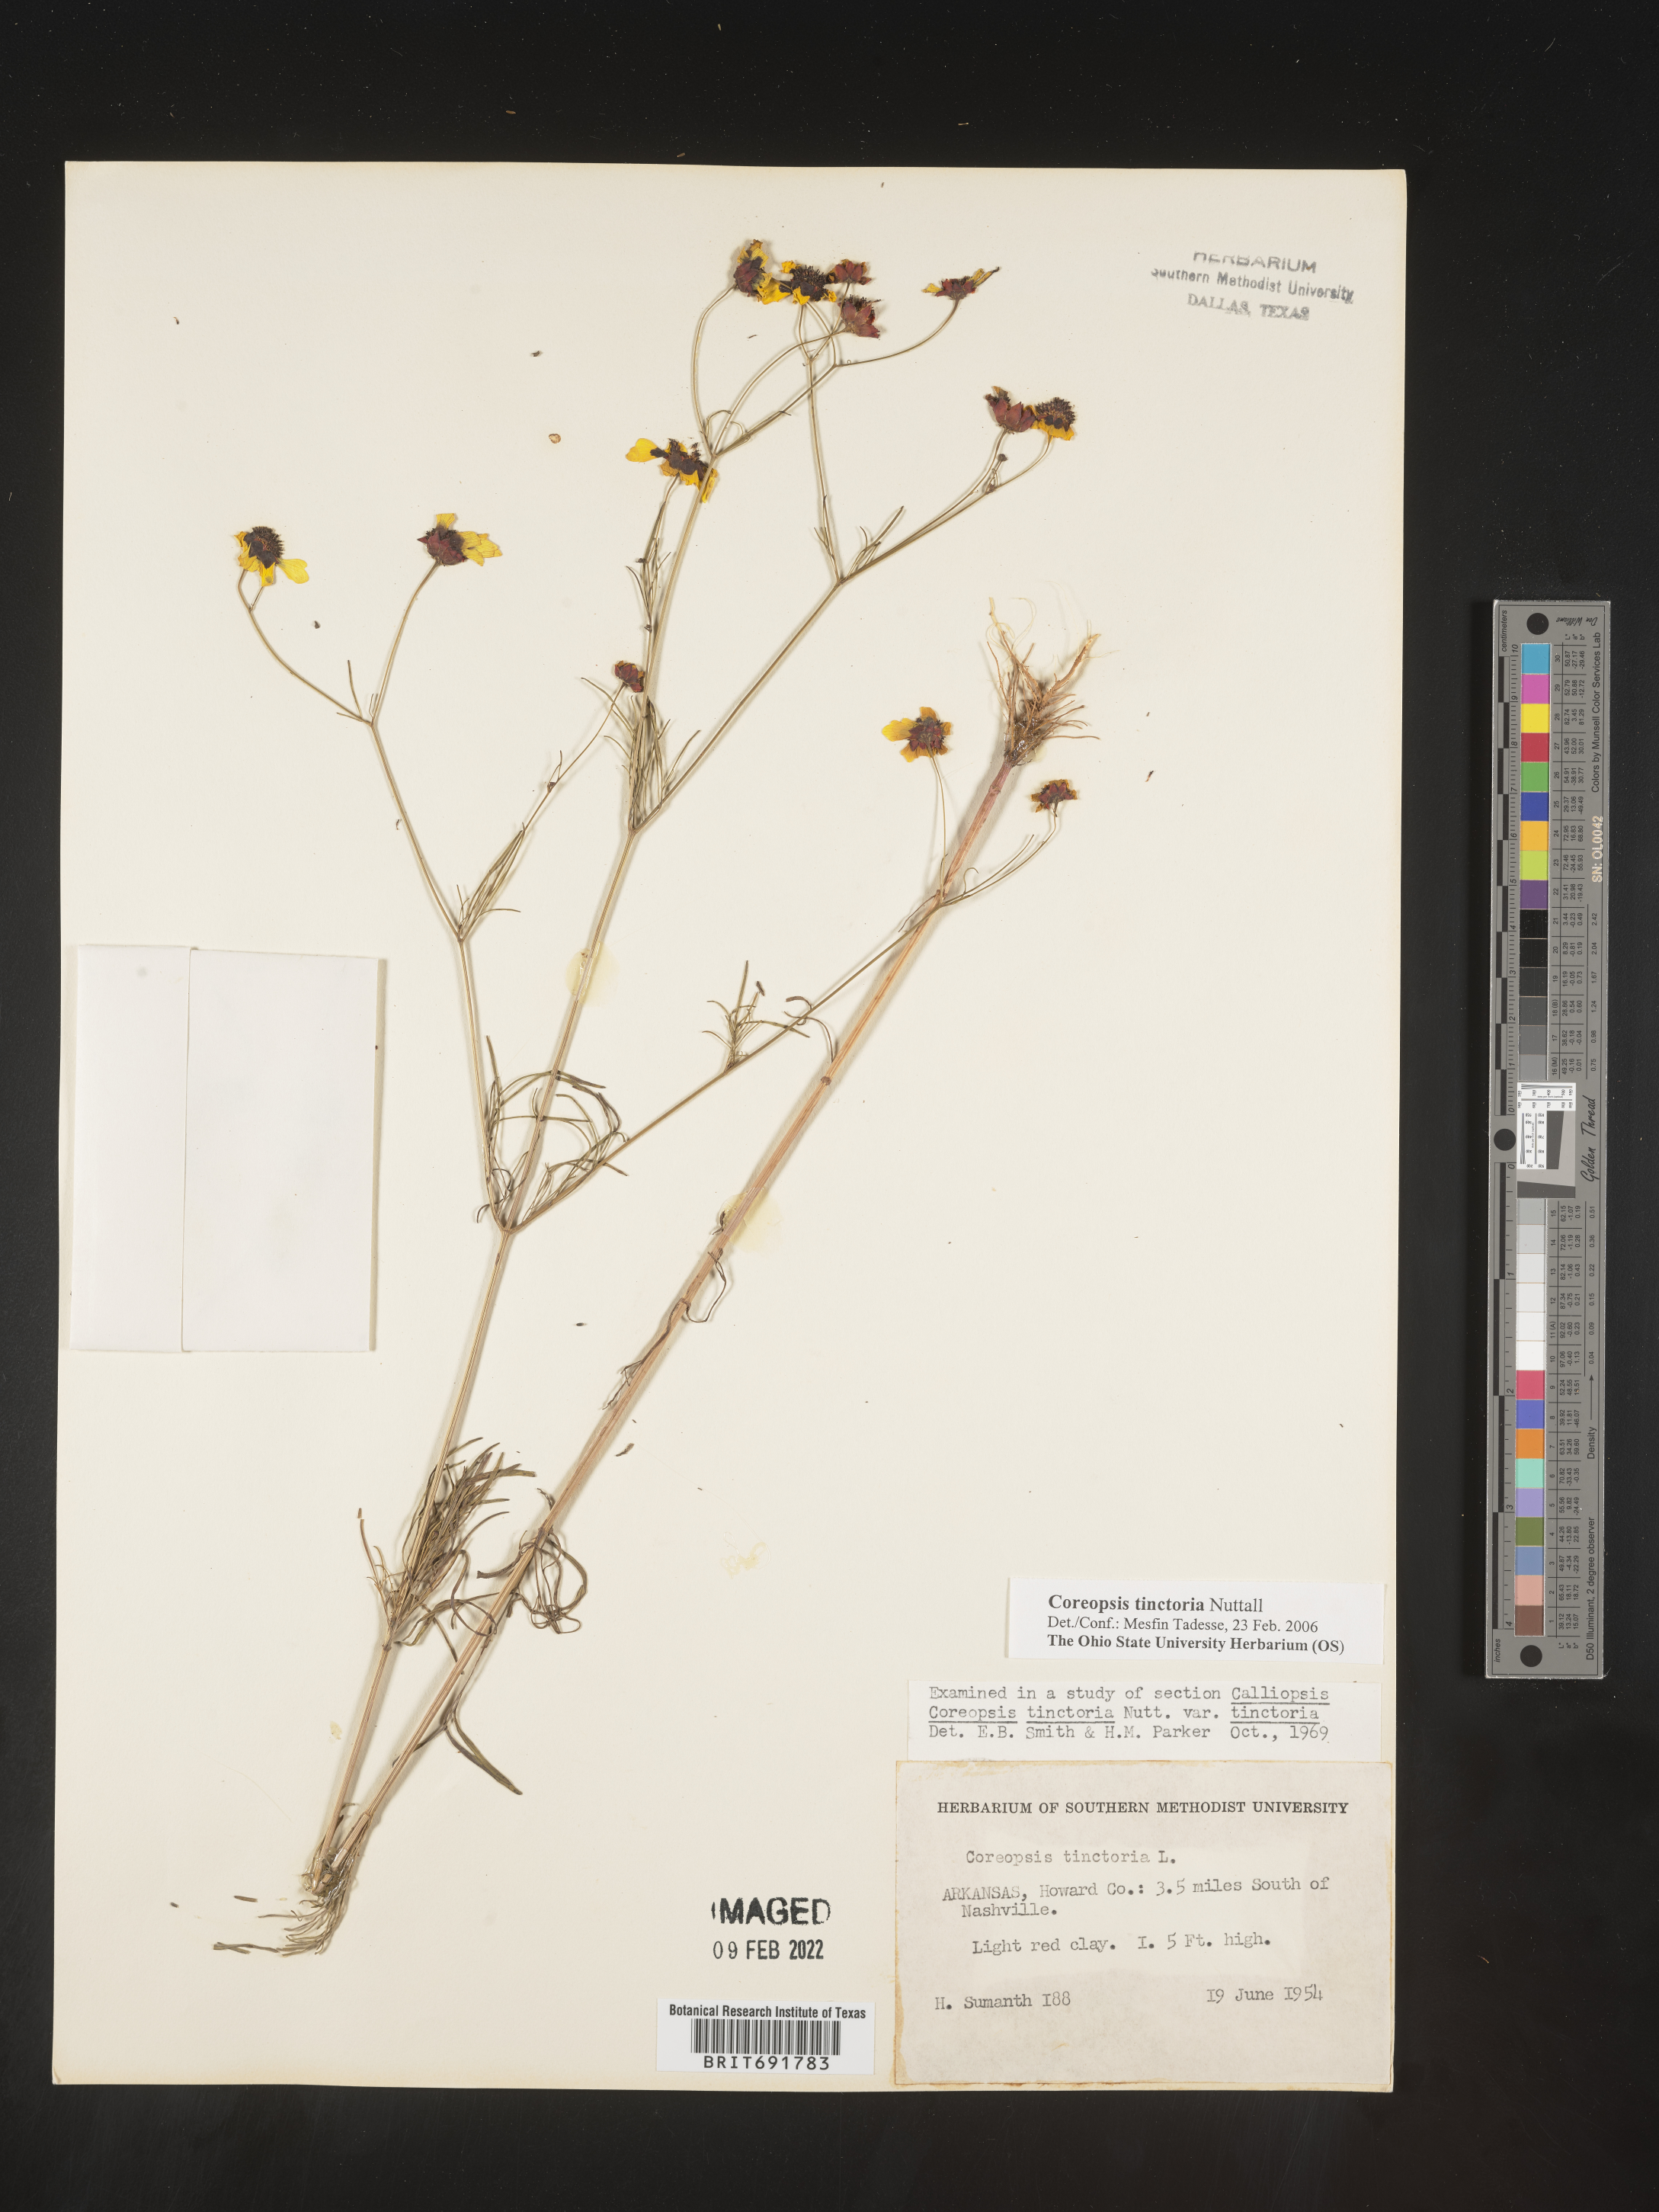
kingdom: Plantae
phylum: Tracheophyta
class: Magnoliopsida
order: Asterales
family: Asteraceae
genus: Coreopsis
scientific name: Coreopsis tinctoria
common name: Garden tickseed
